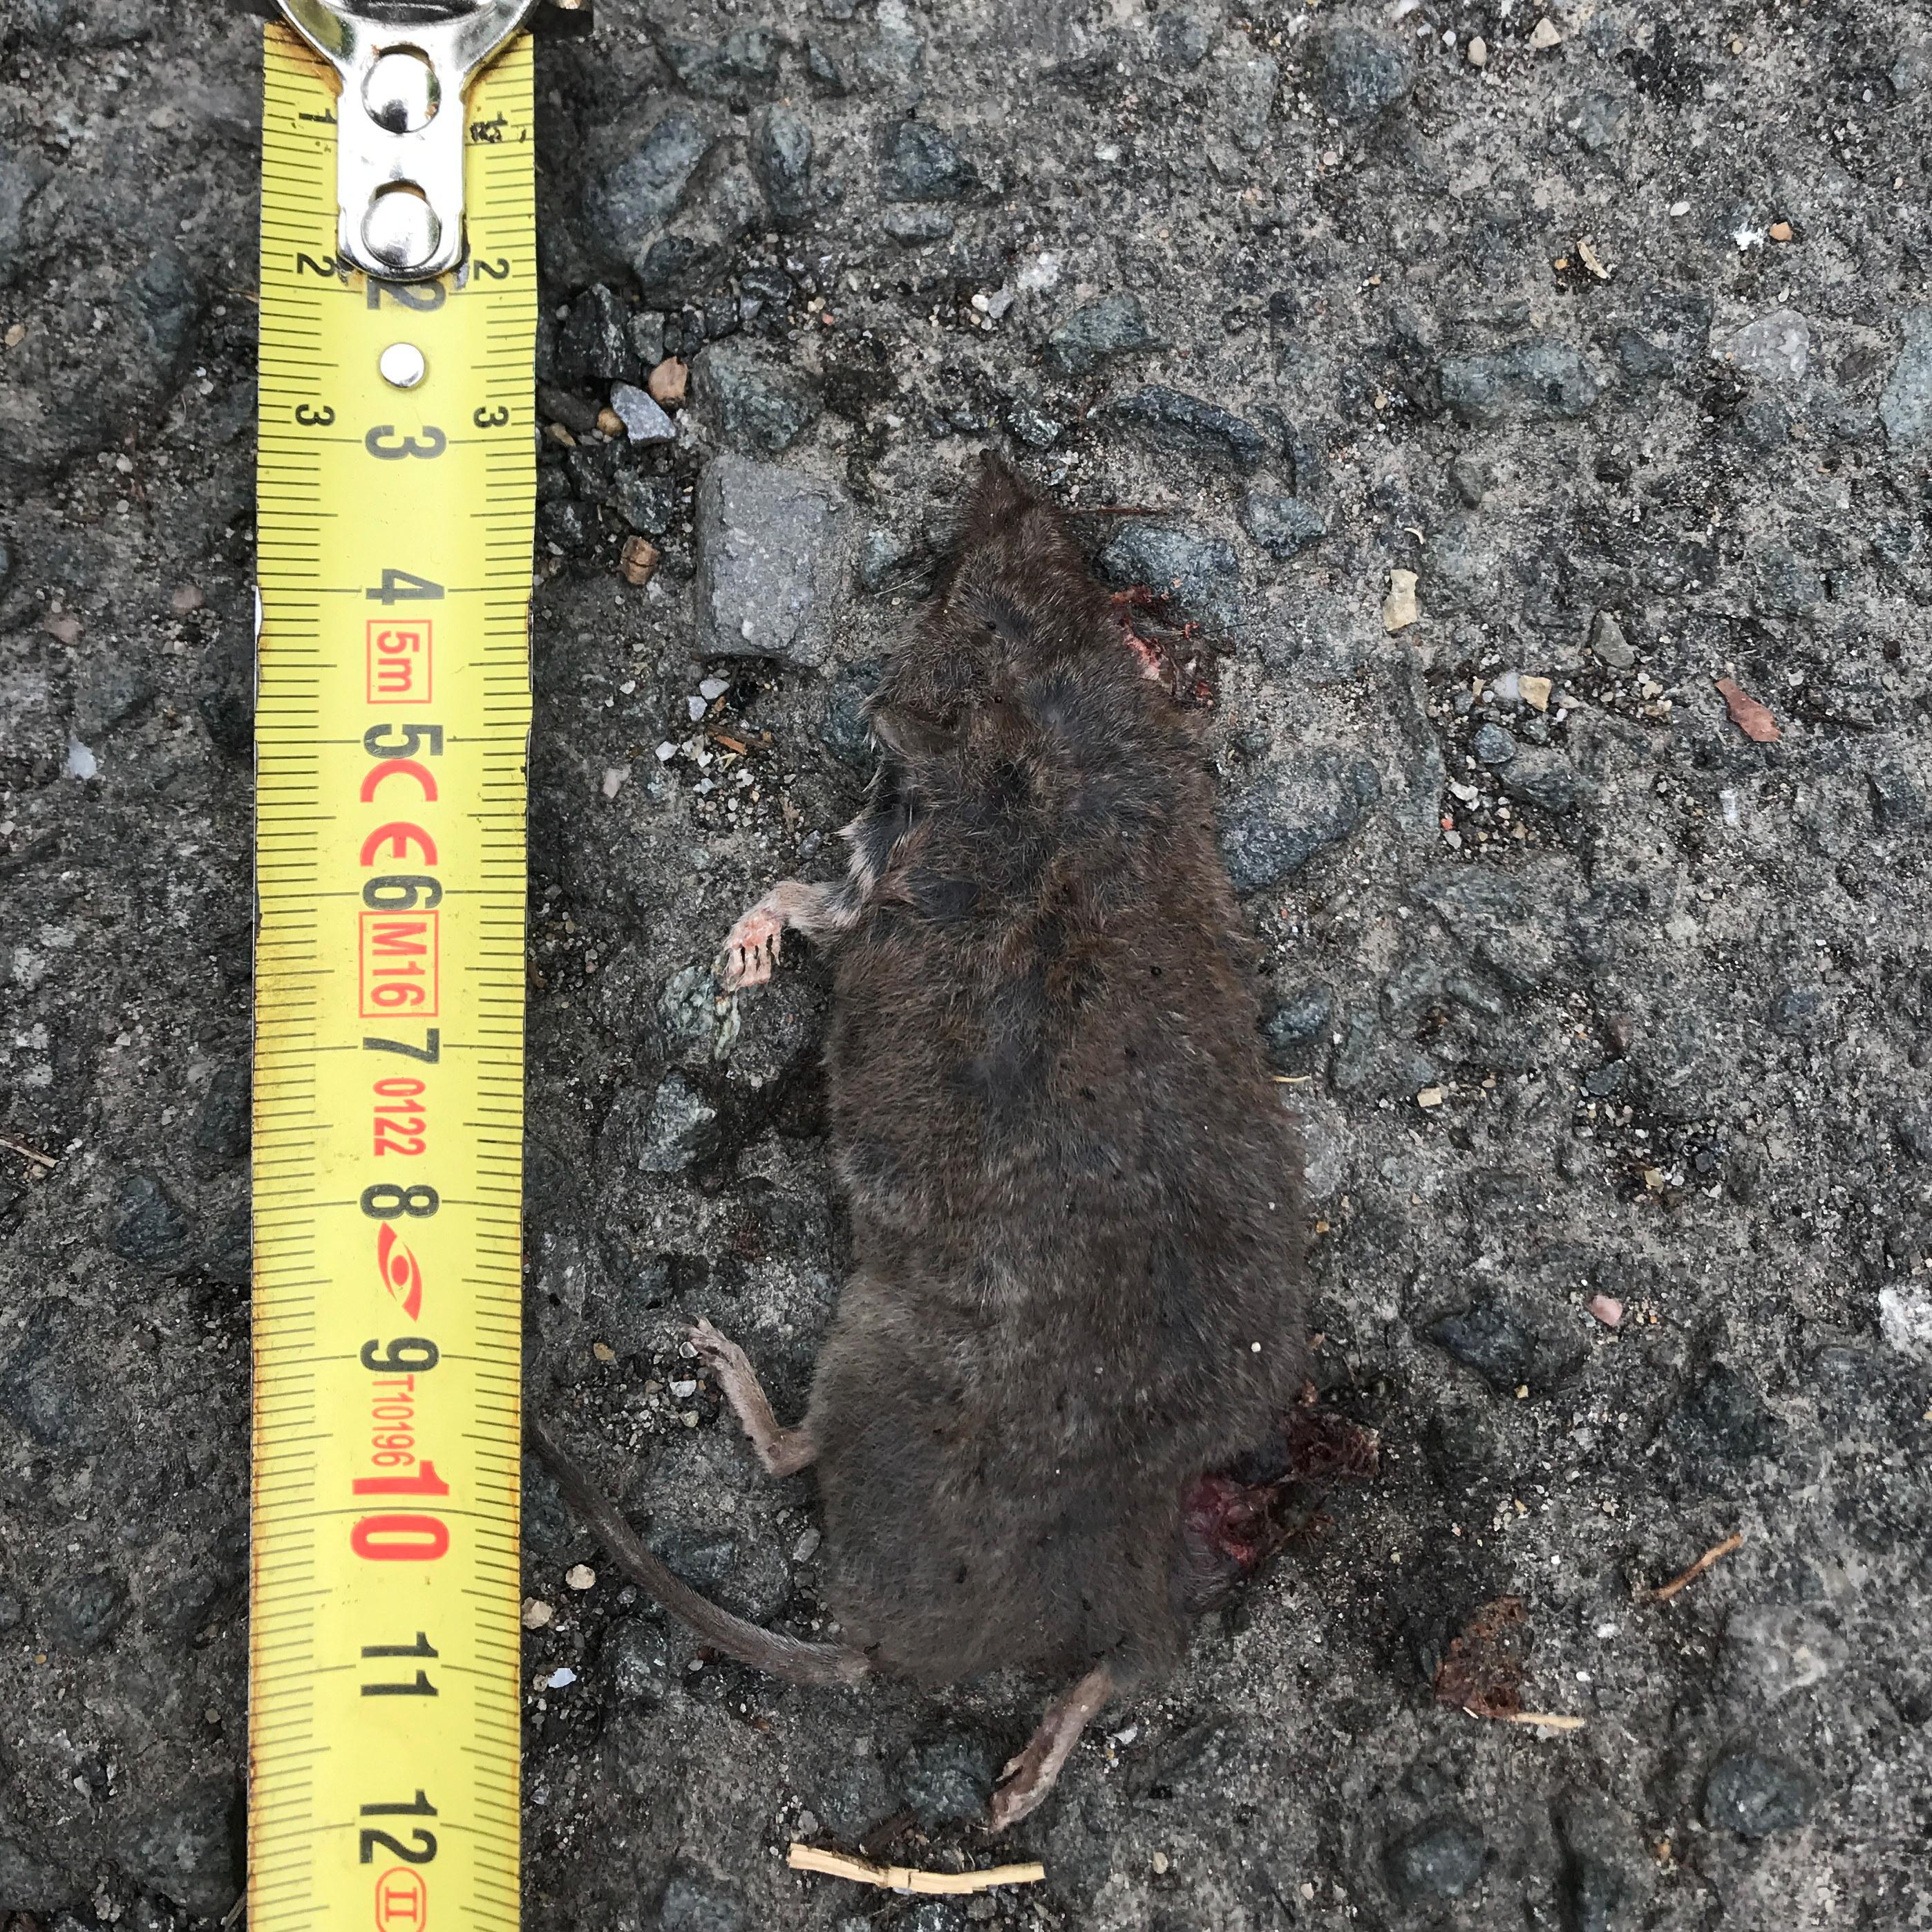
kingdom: Animalia
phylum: Chordata
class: Mammalia
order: Soricomorpha
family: Soricidae
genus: Crocidura
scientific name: Crocidura
